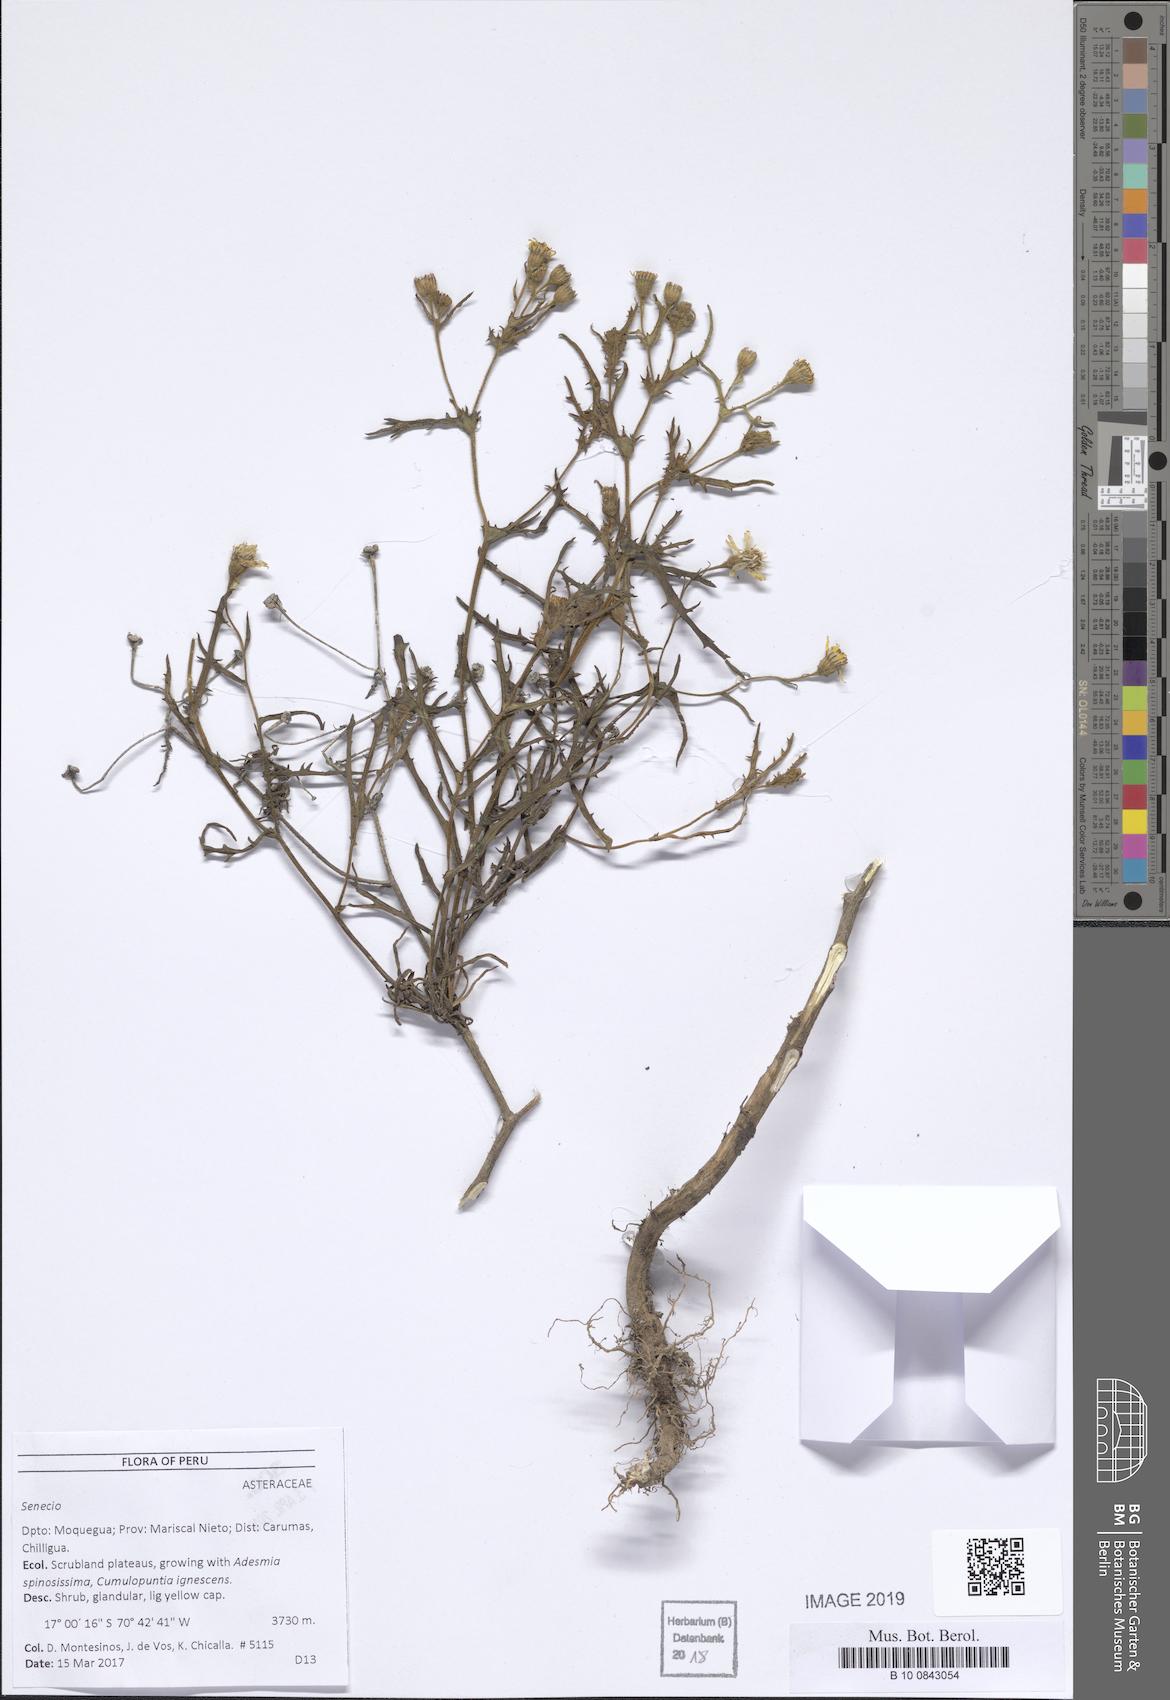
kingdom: Plantae
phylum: Tracheophyta
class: Magnoliopsida
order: Asterales
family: Asteraceae
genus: Senecio
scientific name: Senecio
